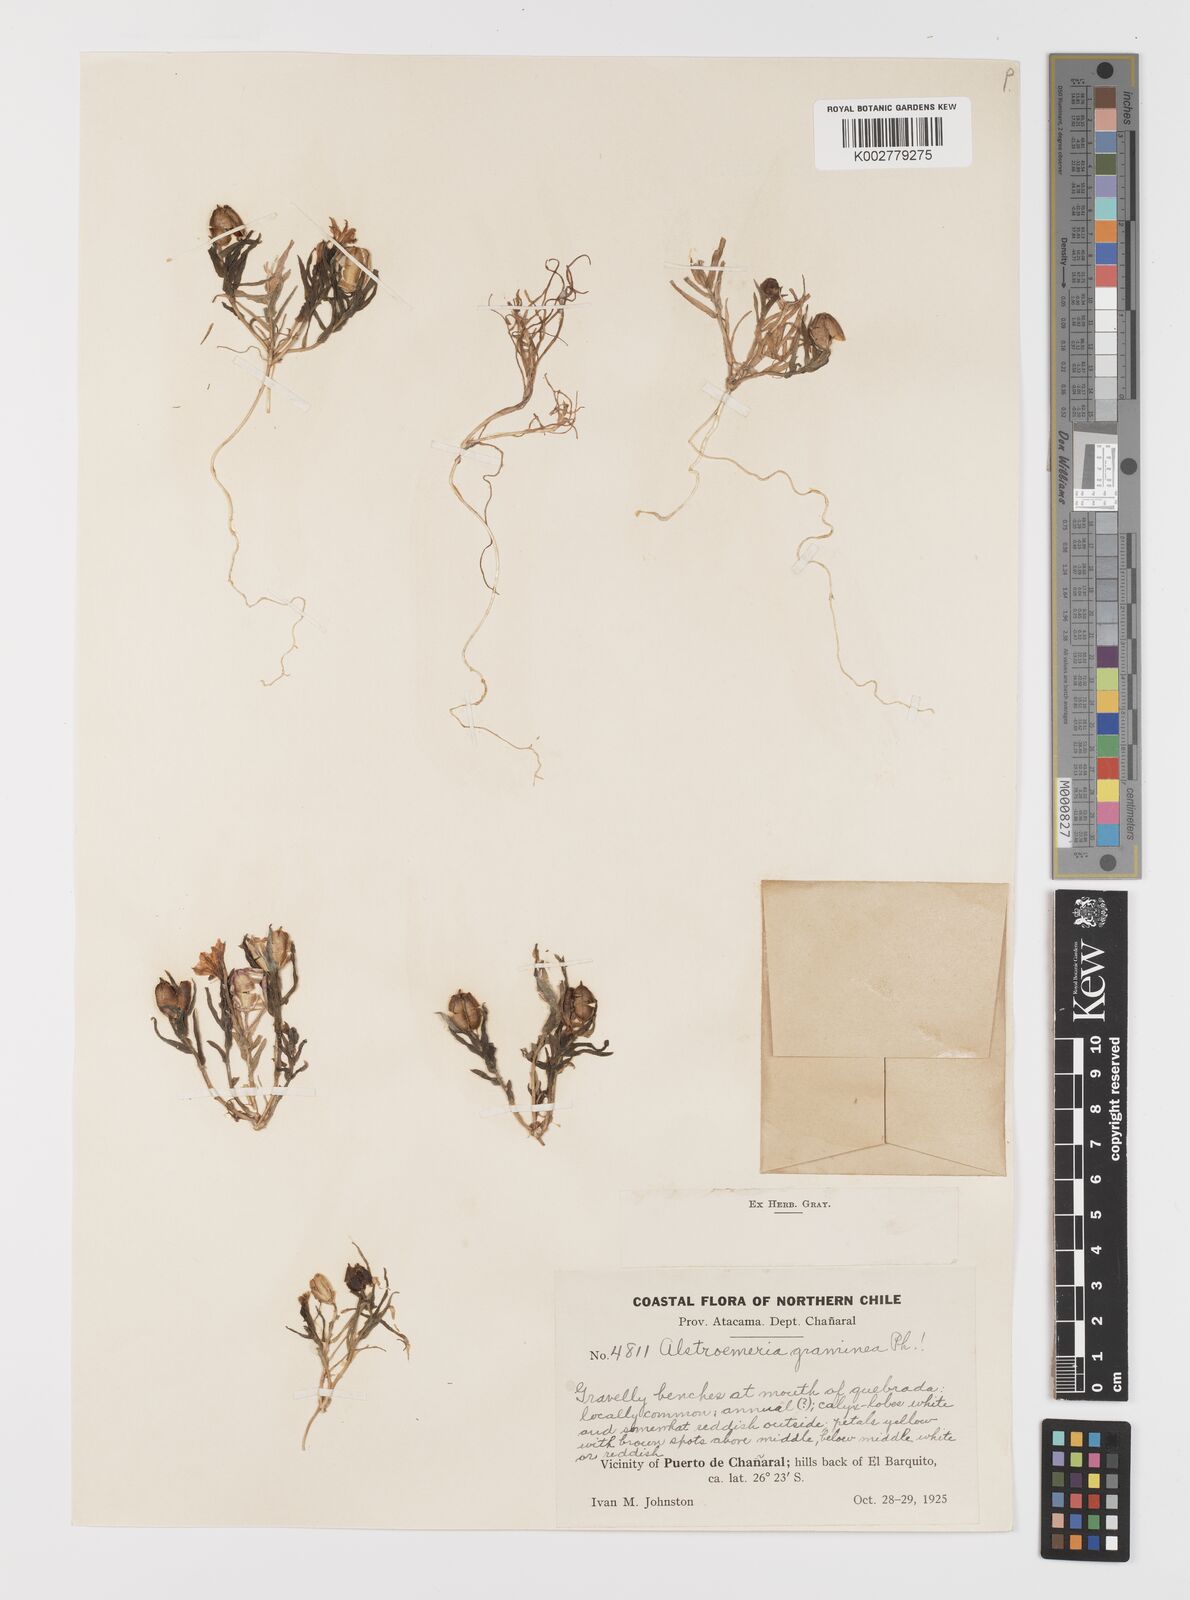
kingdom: Plantae
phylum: Tracheophyta
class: Liliopsida
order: Liliales
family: Alstroemeriaceae
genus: Alstroemeria
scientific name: Alstroemeria graminea
